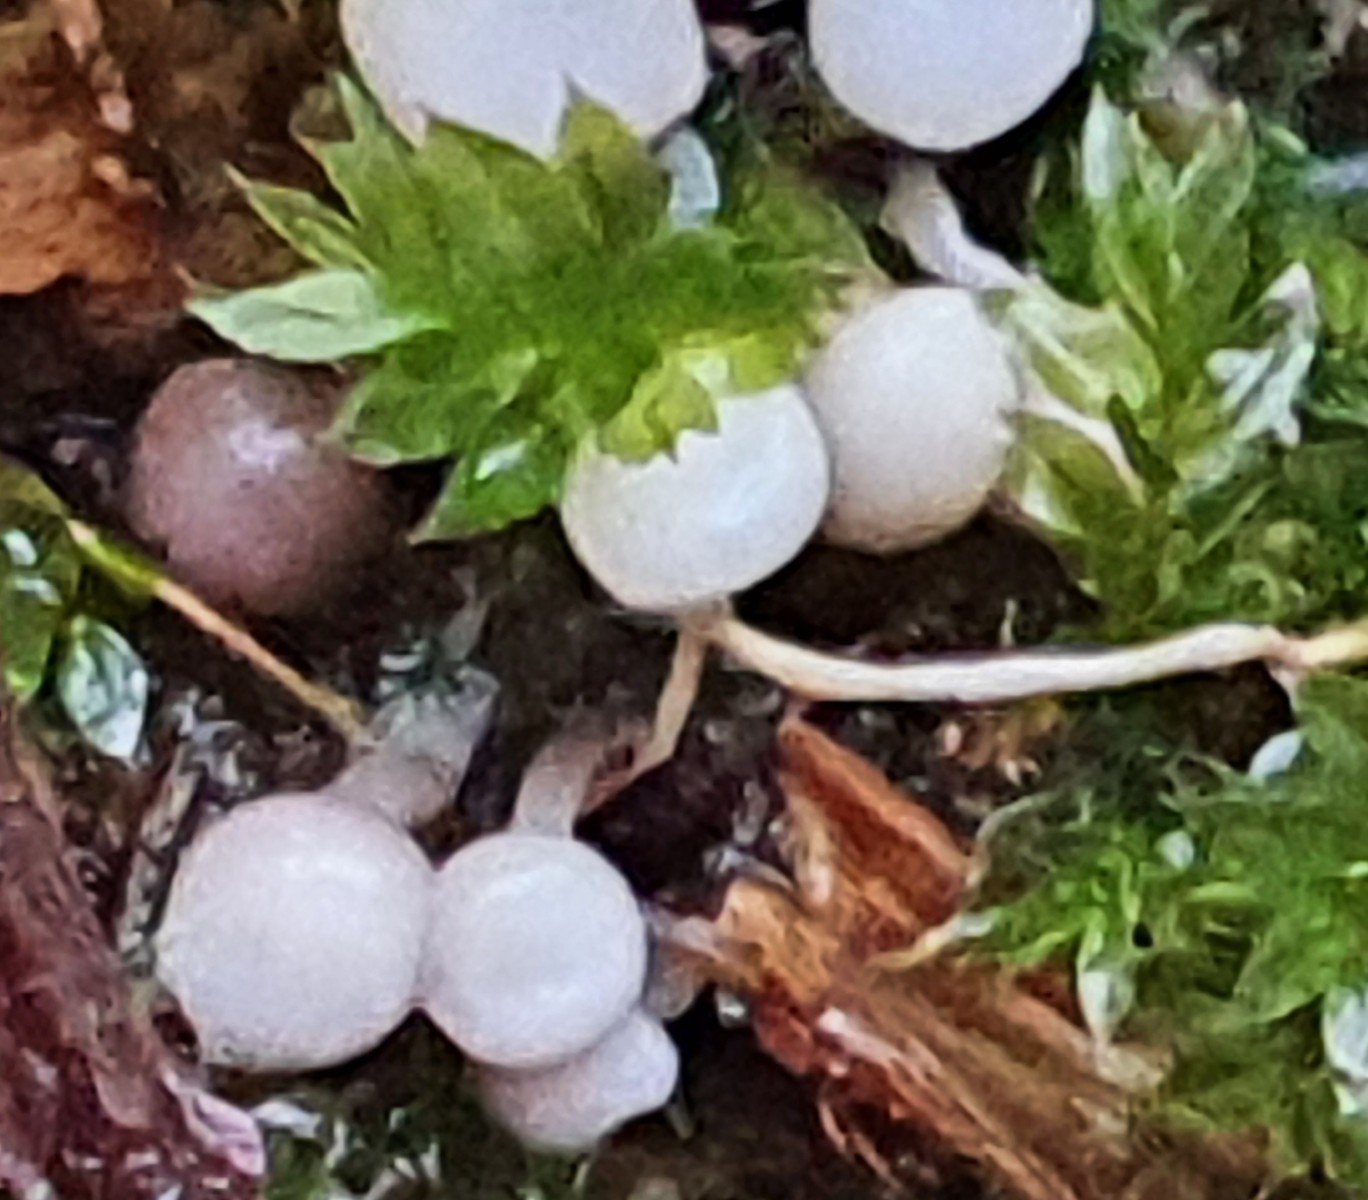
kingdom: Protozoa
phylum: Mycetozoa
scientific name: Mycetozoa
